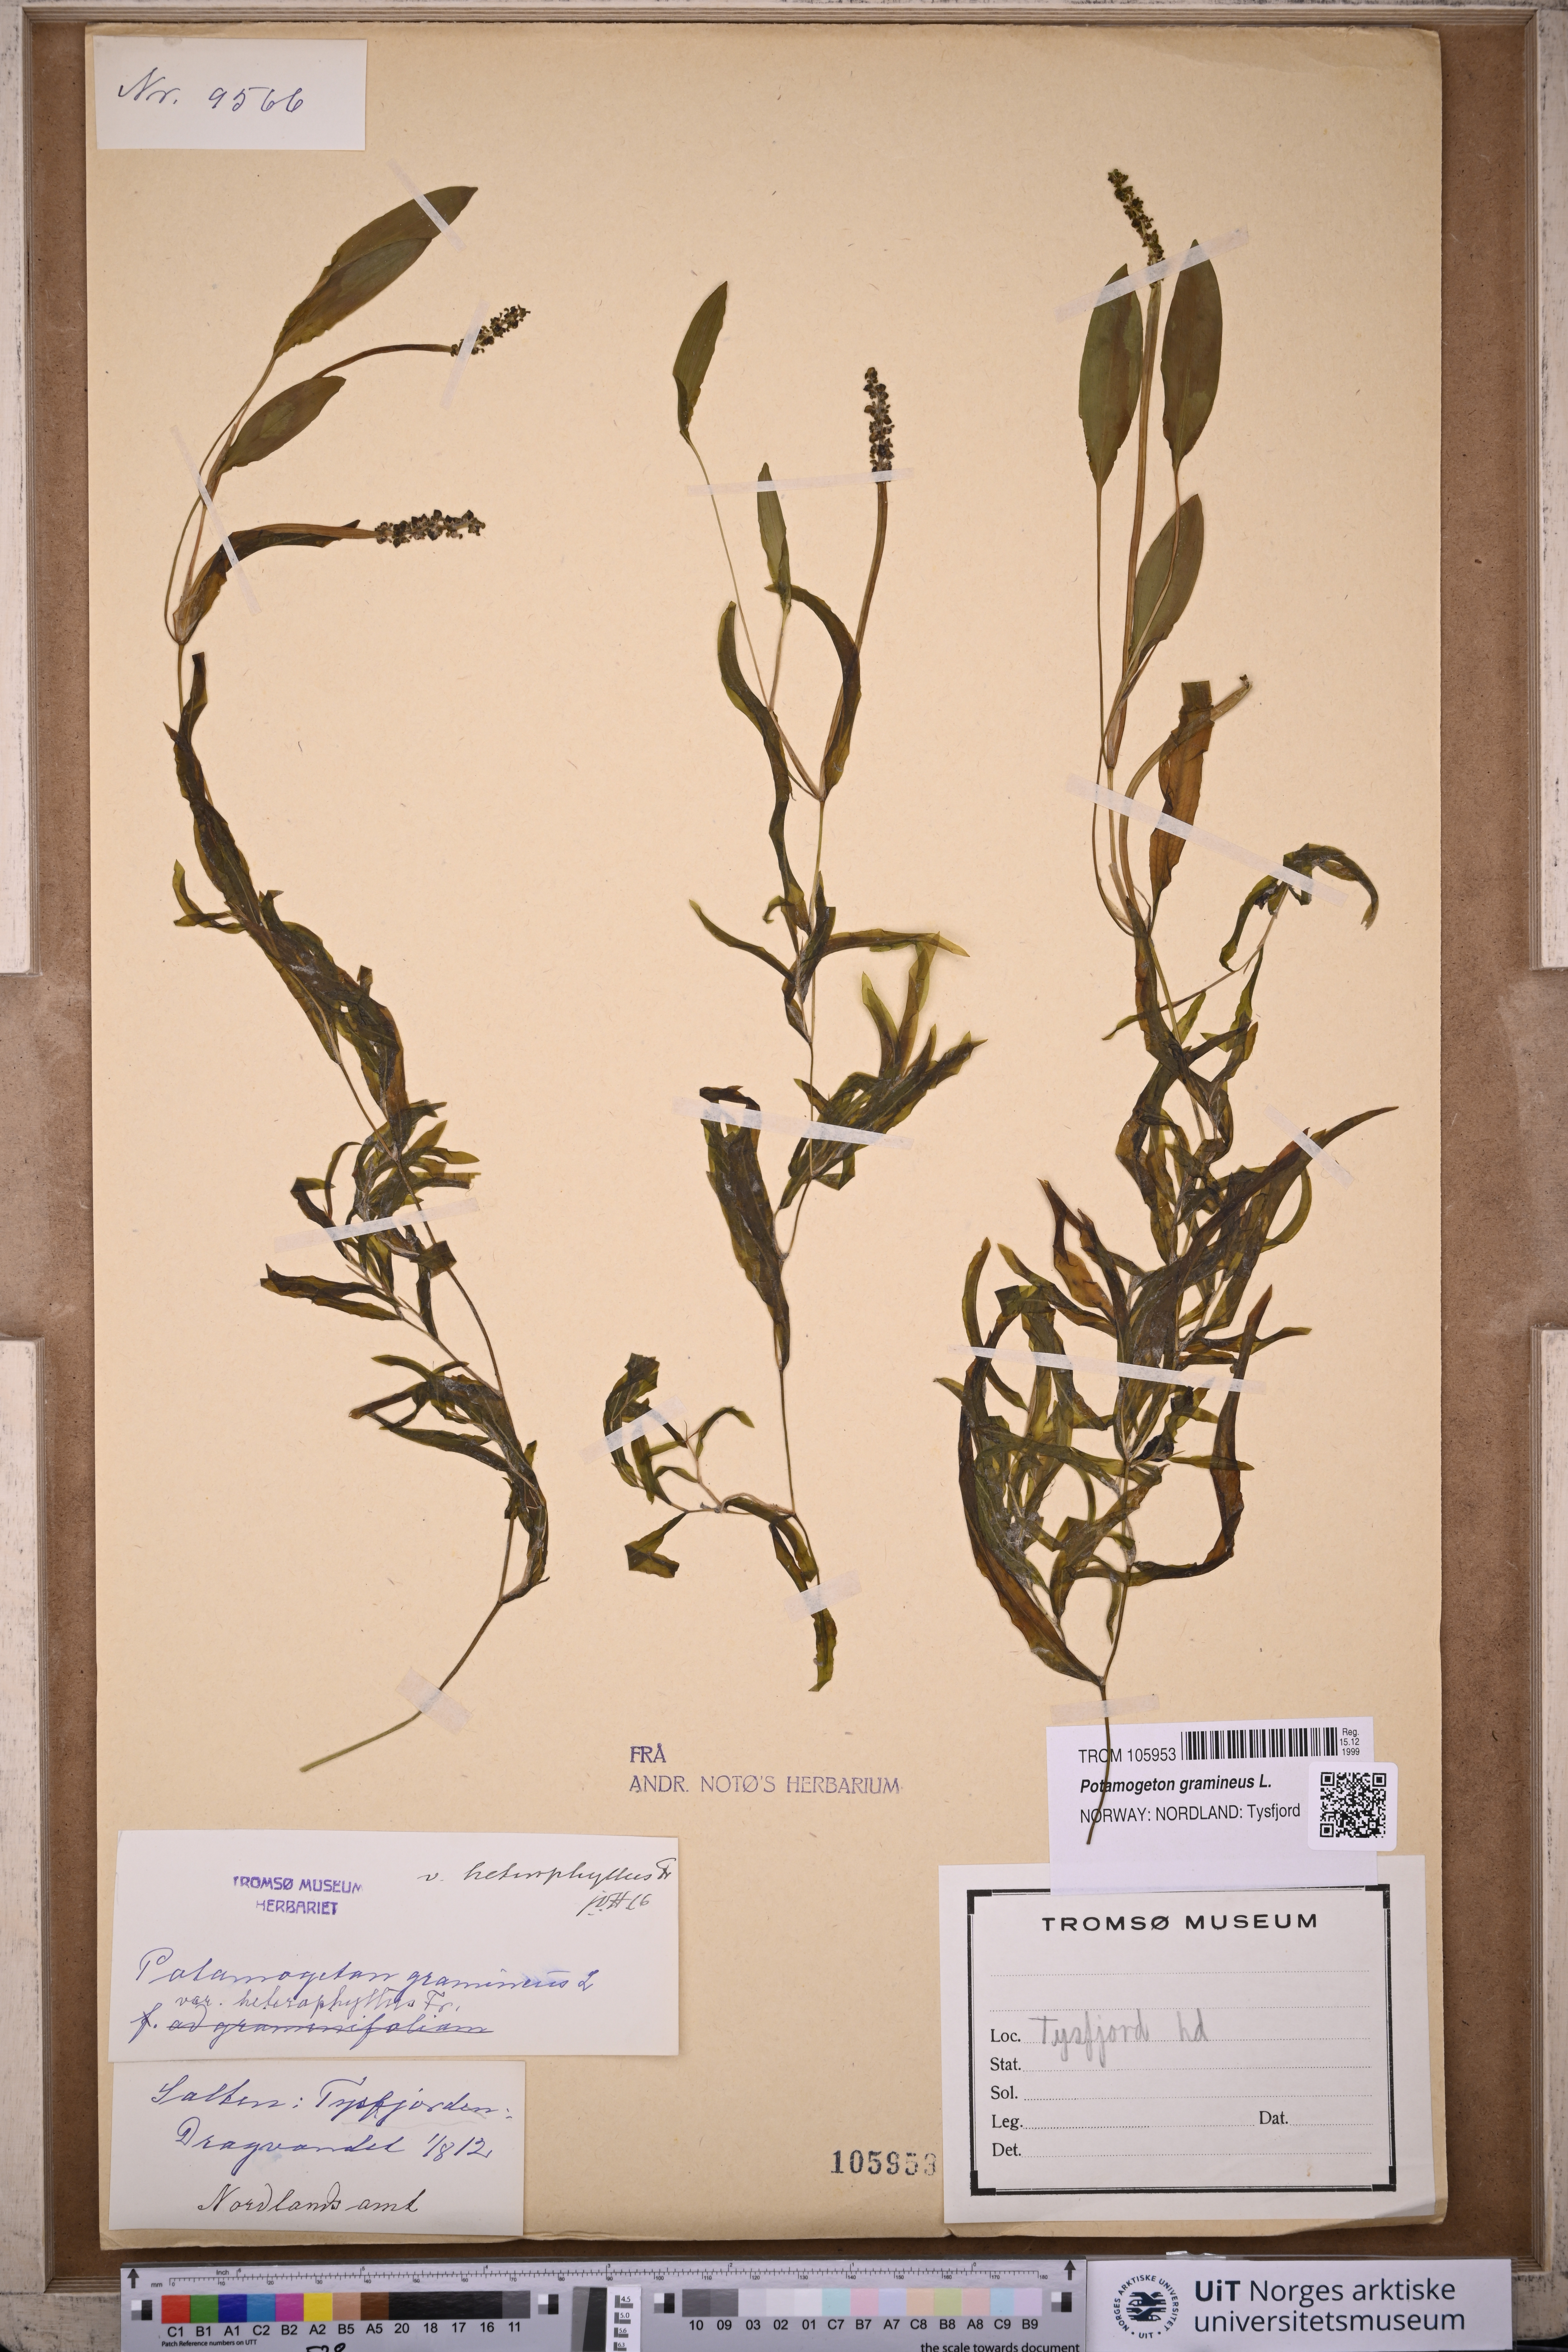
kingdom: Plantae
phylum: Tracheophyta
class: Liliopsida
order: Alismatales
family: Potamogetonaceae
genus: Potamogeton
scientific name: Potamogeton gramineus
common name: Various-leaved pondweed
